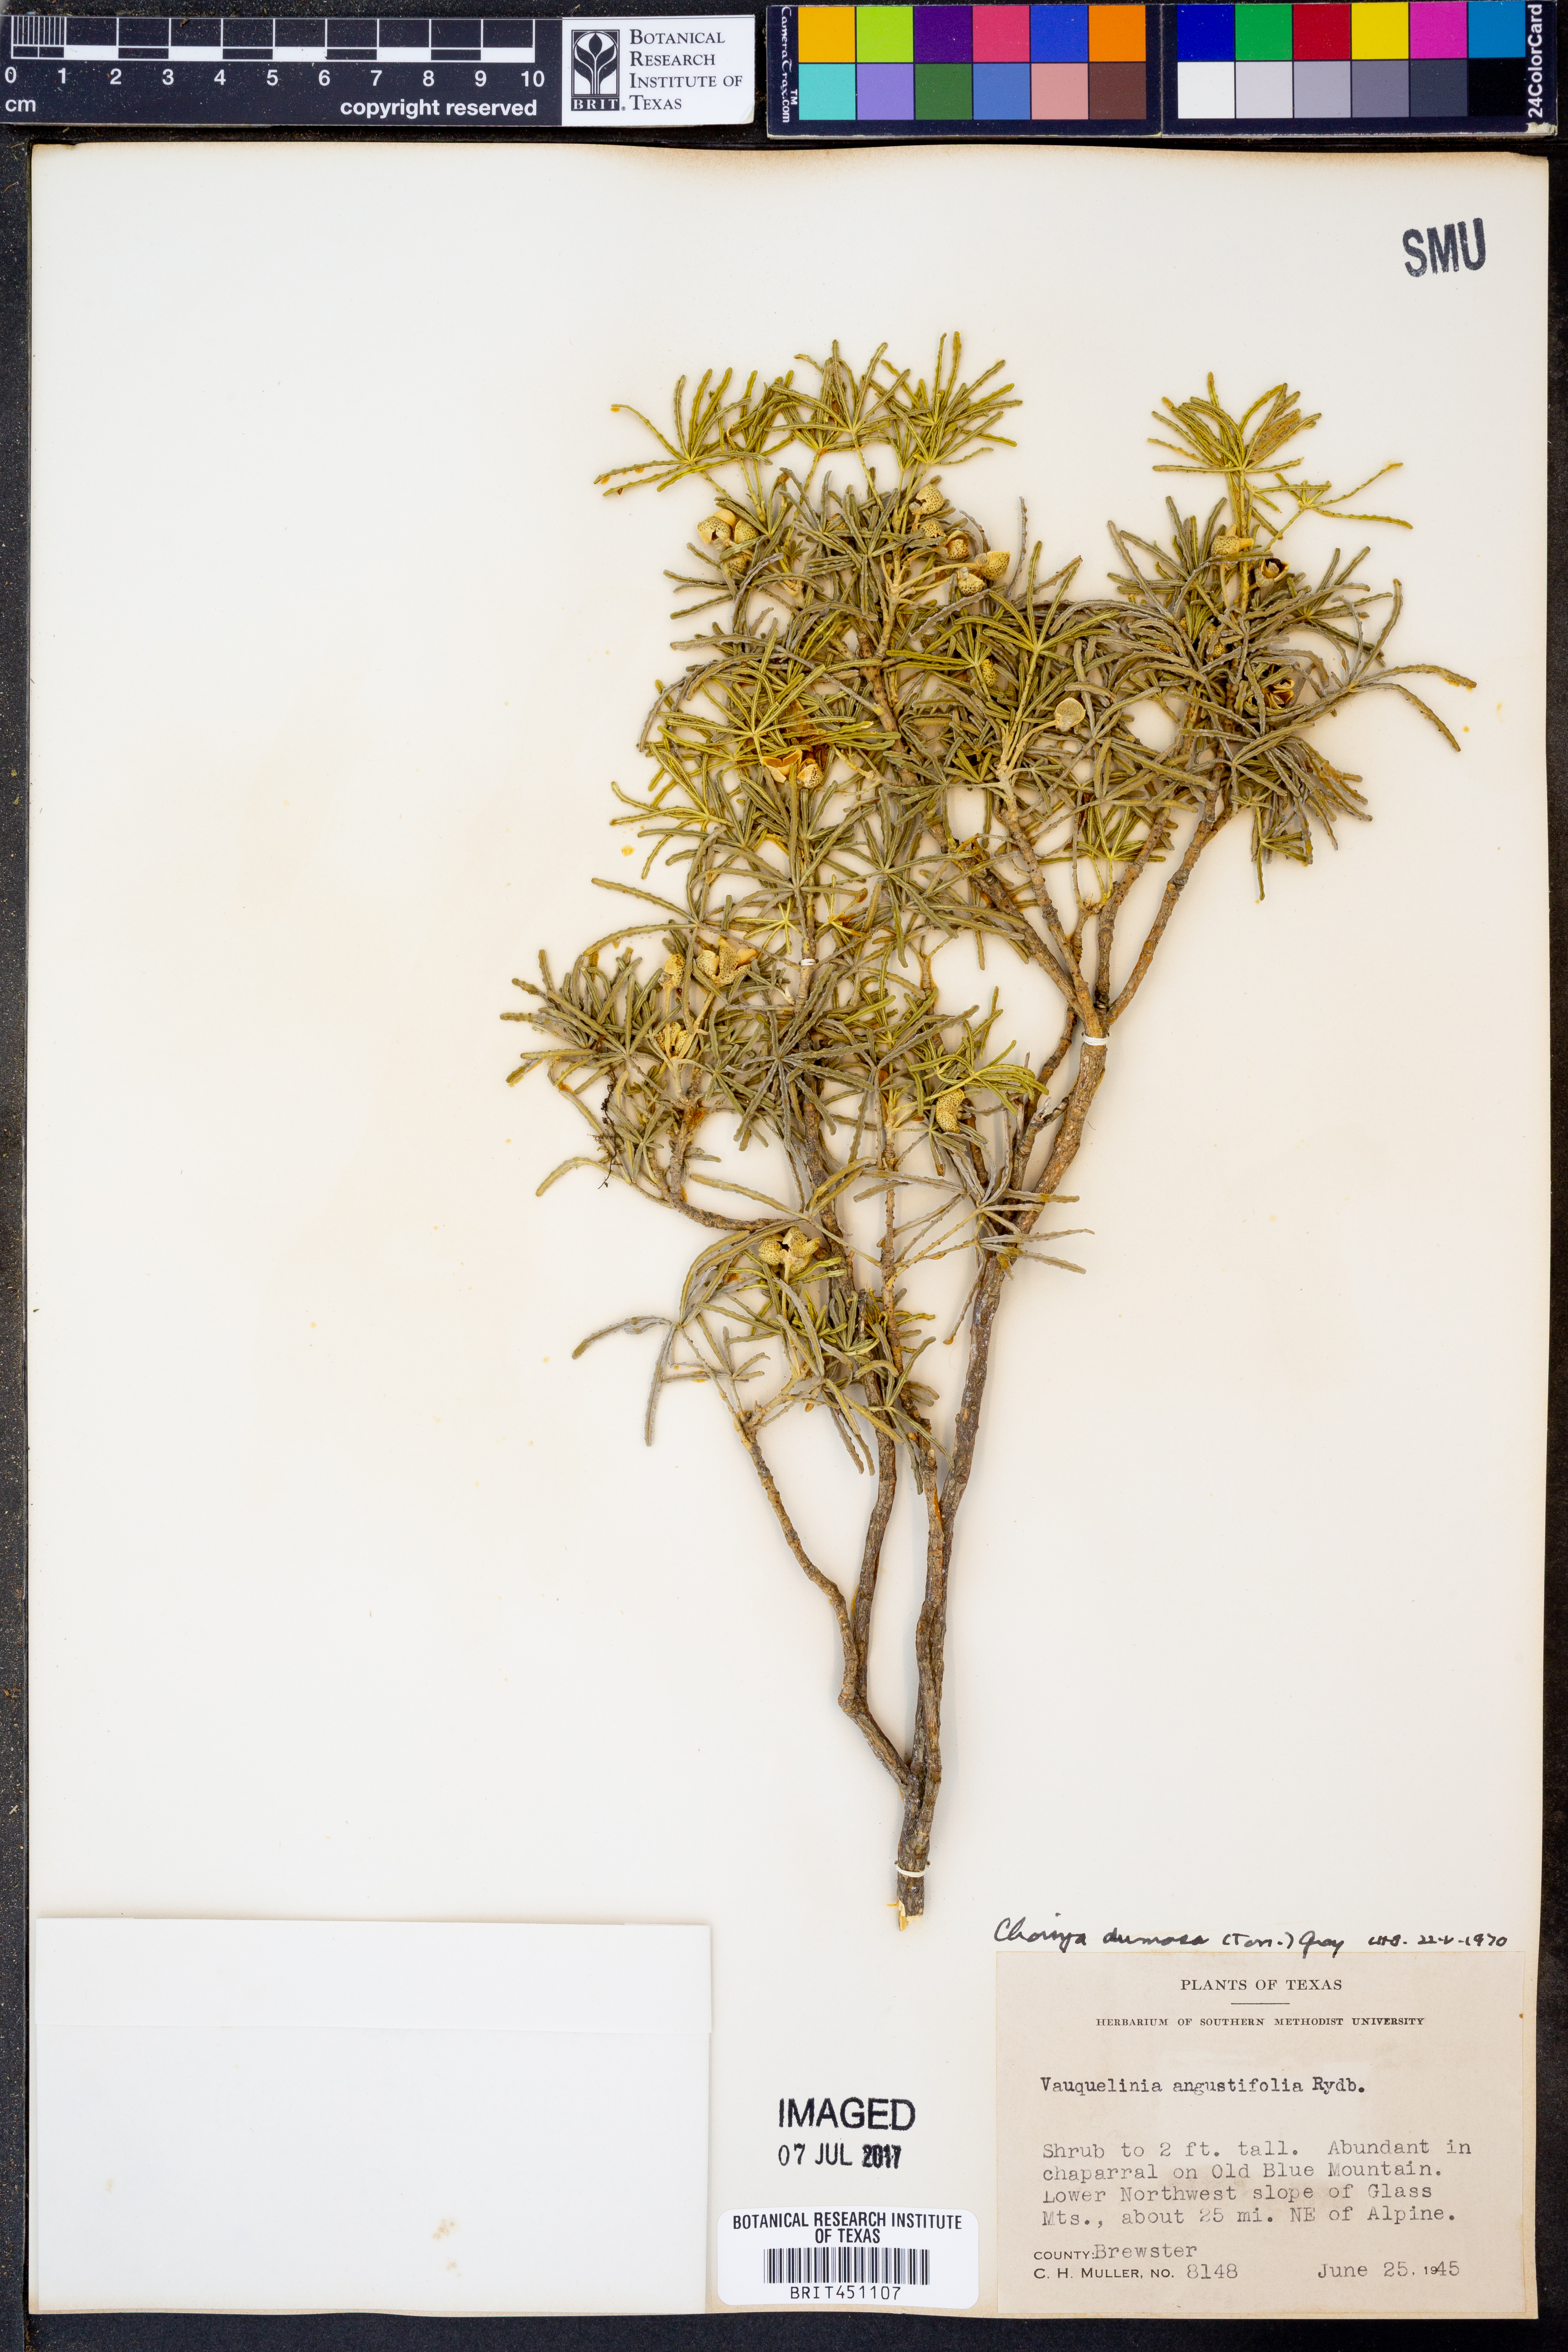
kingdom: Plantae
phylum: Tracheophyta
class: Magnoliopsida
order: Sapindales
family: Rutaceae
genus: Choisya
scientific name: Choisya dumosa
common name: Mexican-orange
